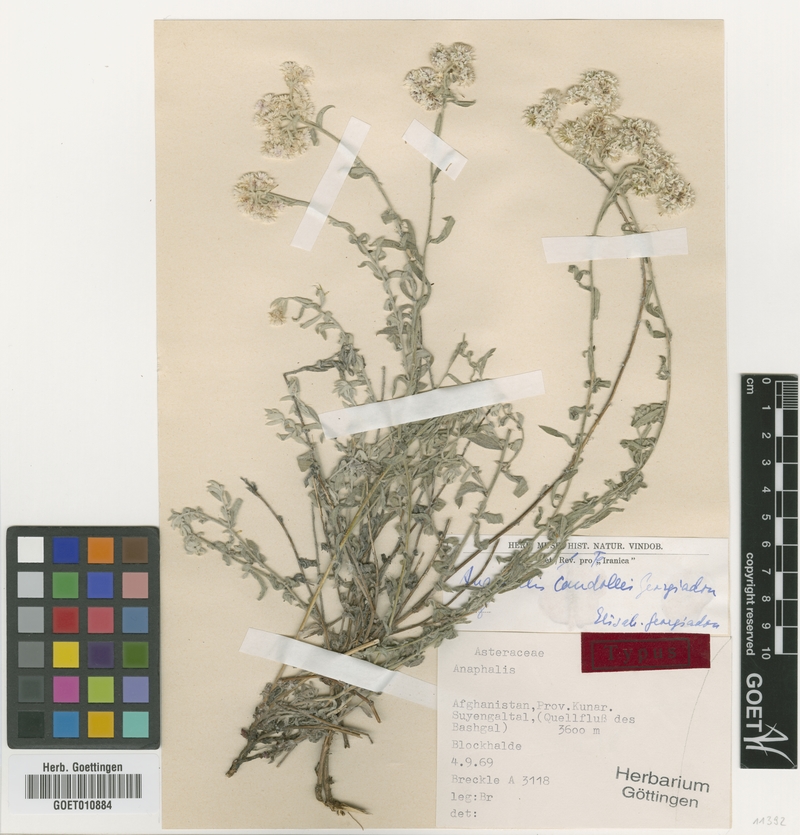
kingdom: Plantae
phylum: Tracheophyta
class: Magnoliopsida
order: Asterales
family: Asteraceae
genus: Anaphalis
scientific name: Anaphalis candollei
